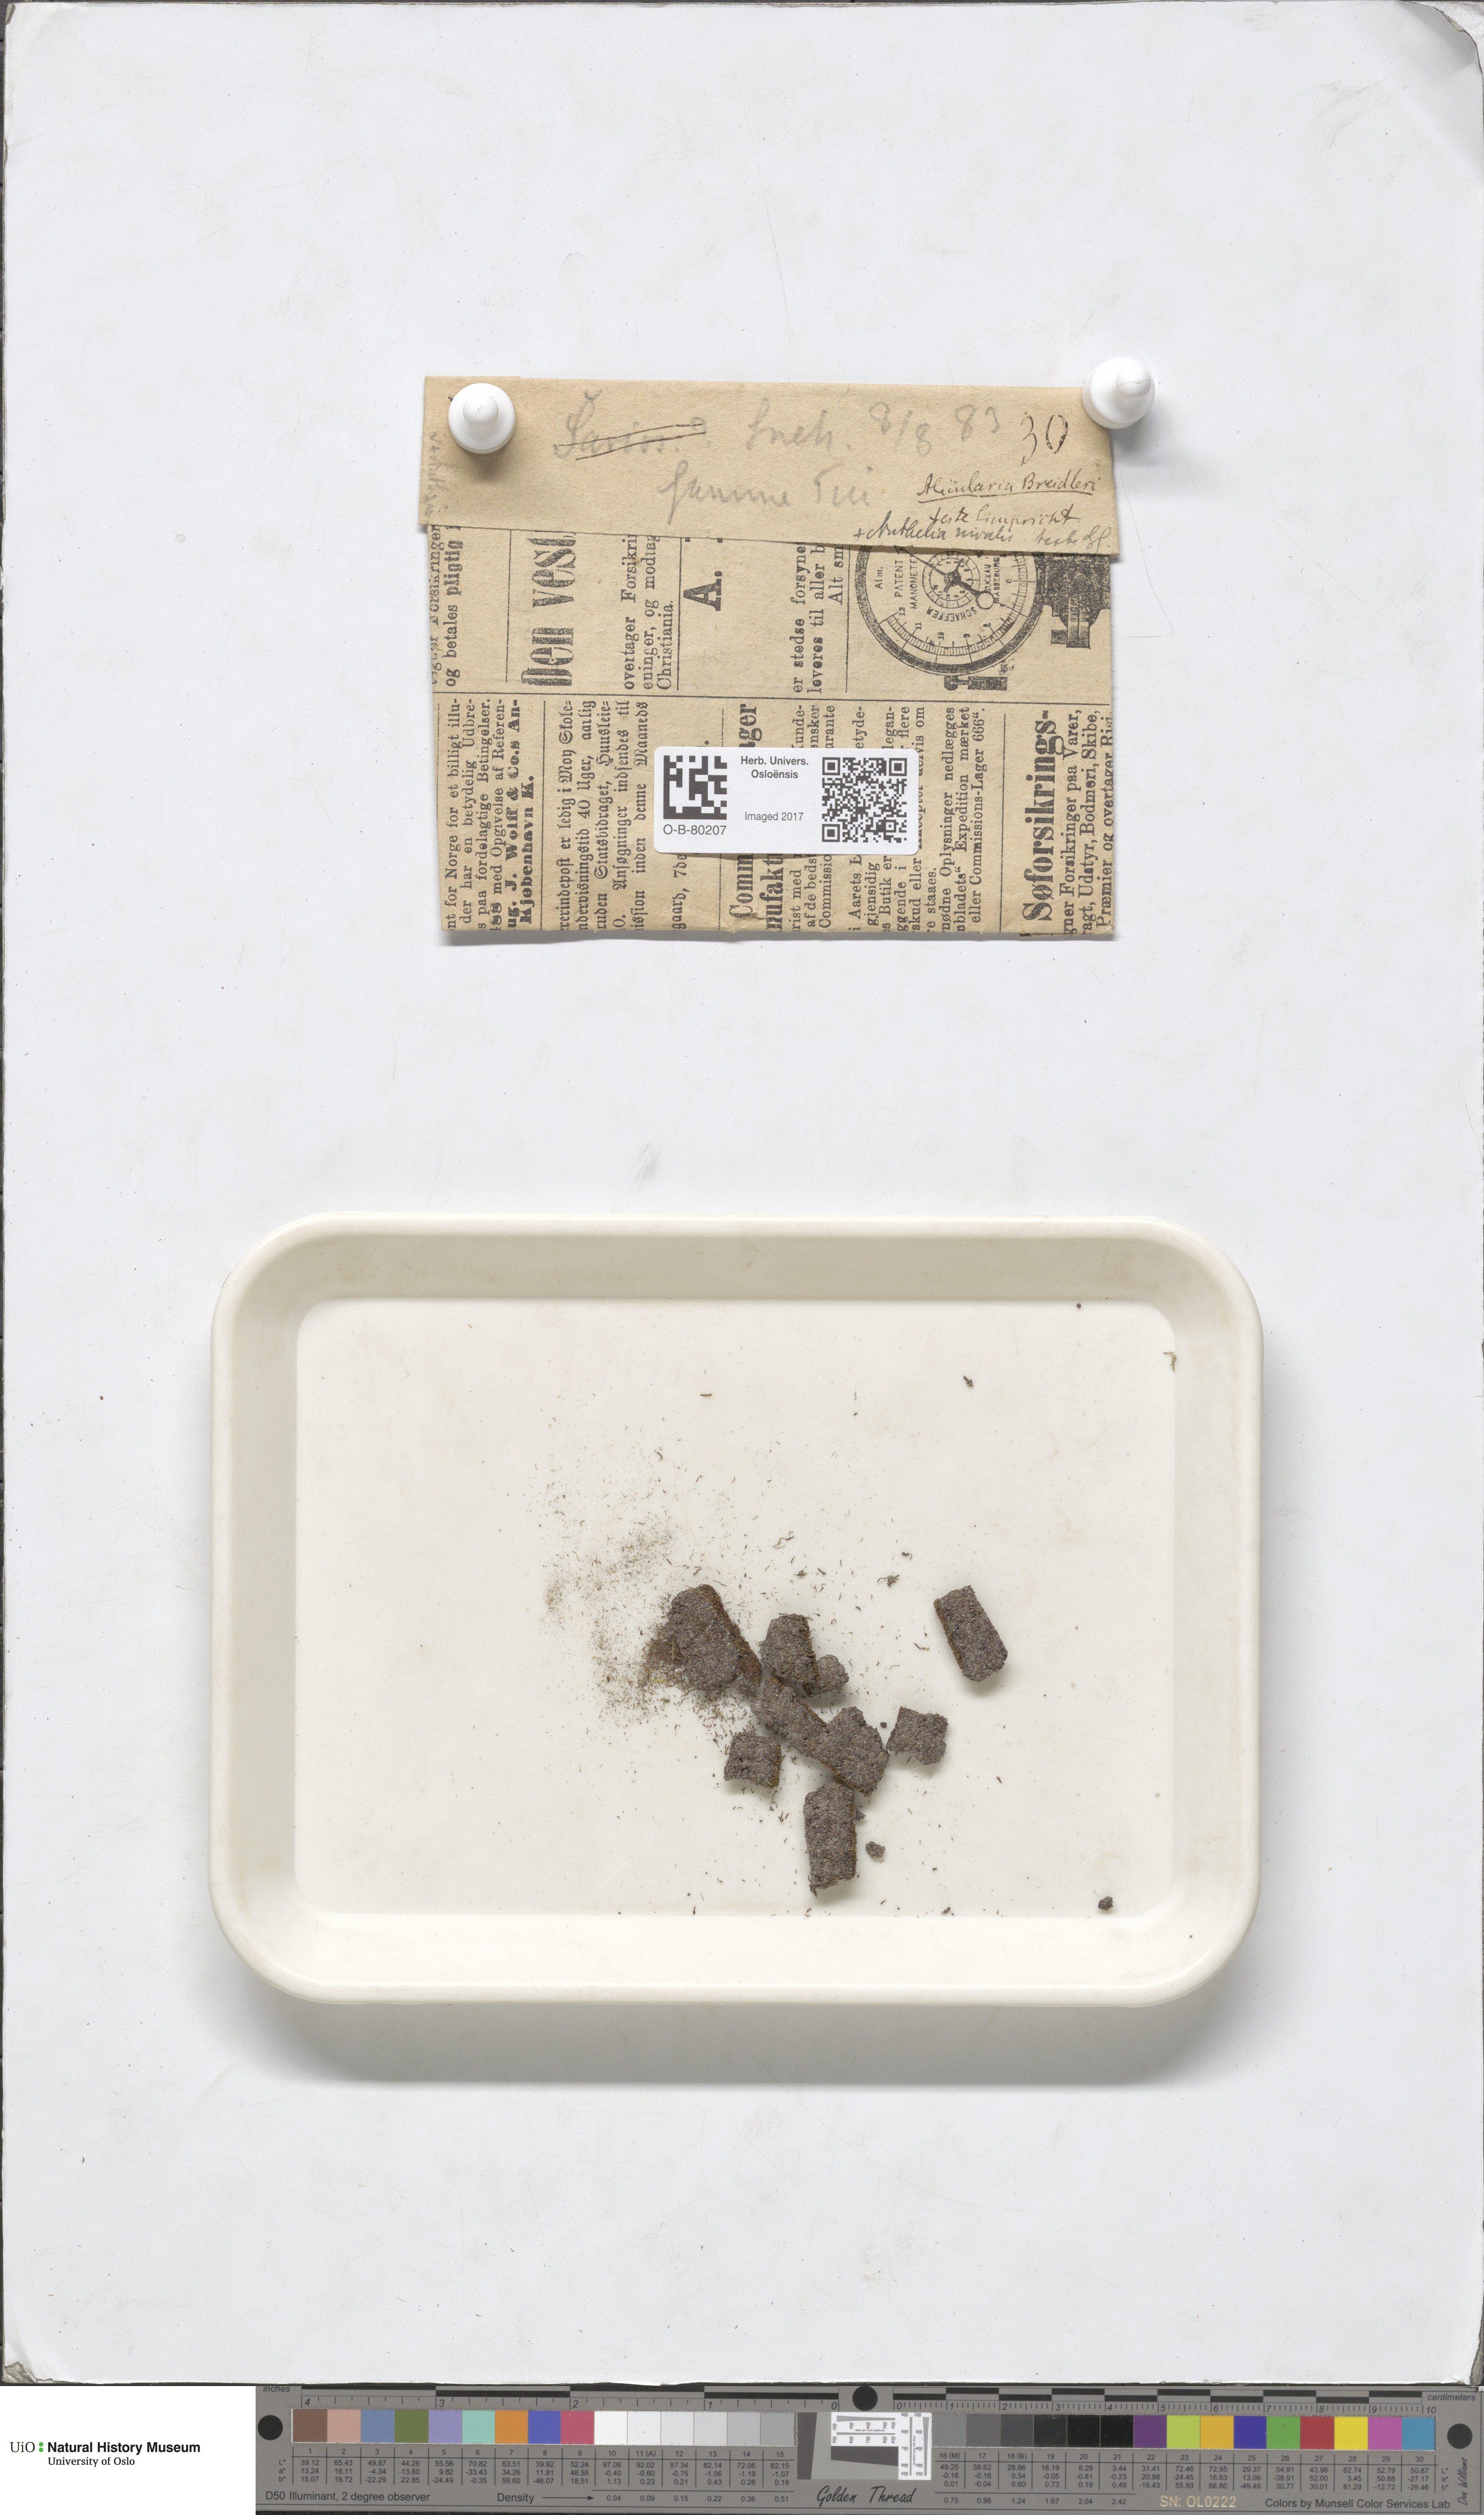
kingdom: Plantae
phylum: Marchantiophyta
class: Jungermanniopsida
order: Jungermanniales
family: Gymnomitriaceae
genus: Nardia
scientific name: Nardia breidleri
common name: Book flapwort
